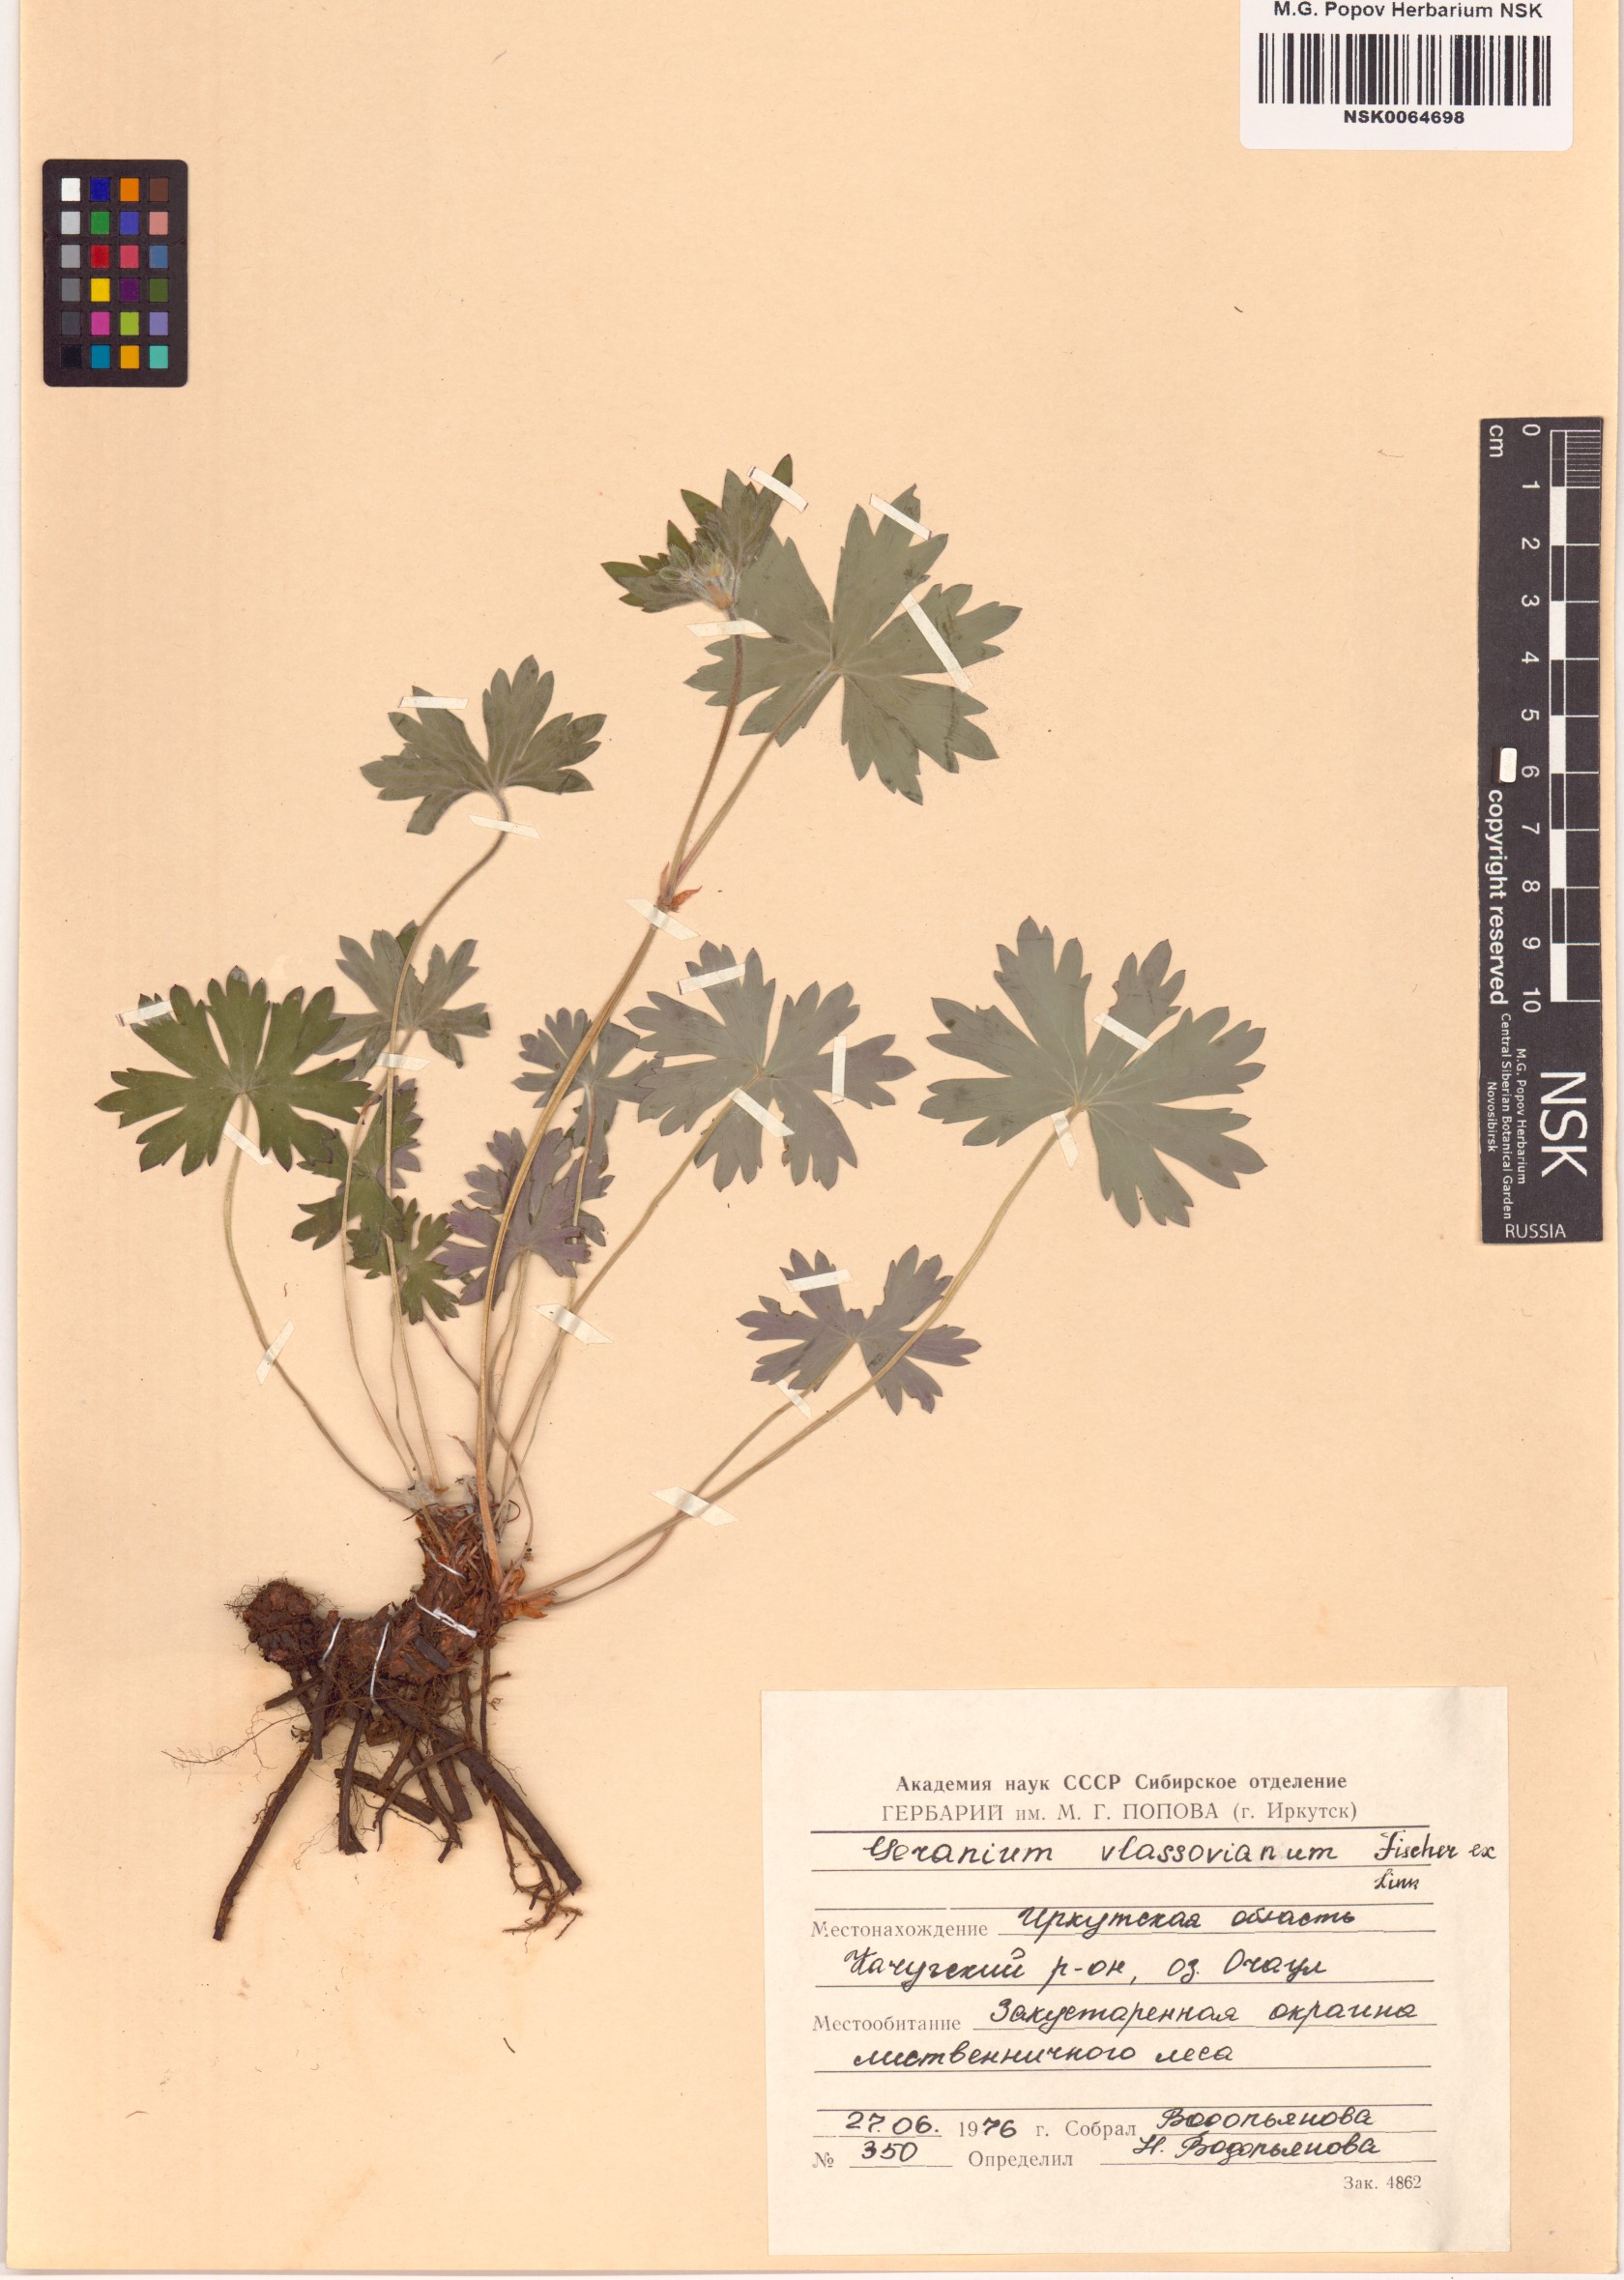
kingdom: Plantae
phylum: Tracheophyta
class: Magnoliopsida
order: Geraniales
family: Geraniaceae
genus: Geranium
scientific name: Geranium wlassovianum
